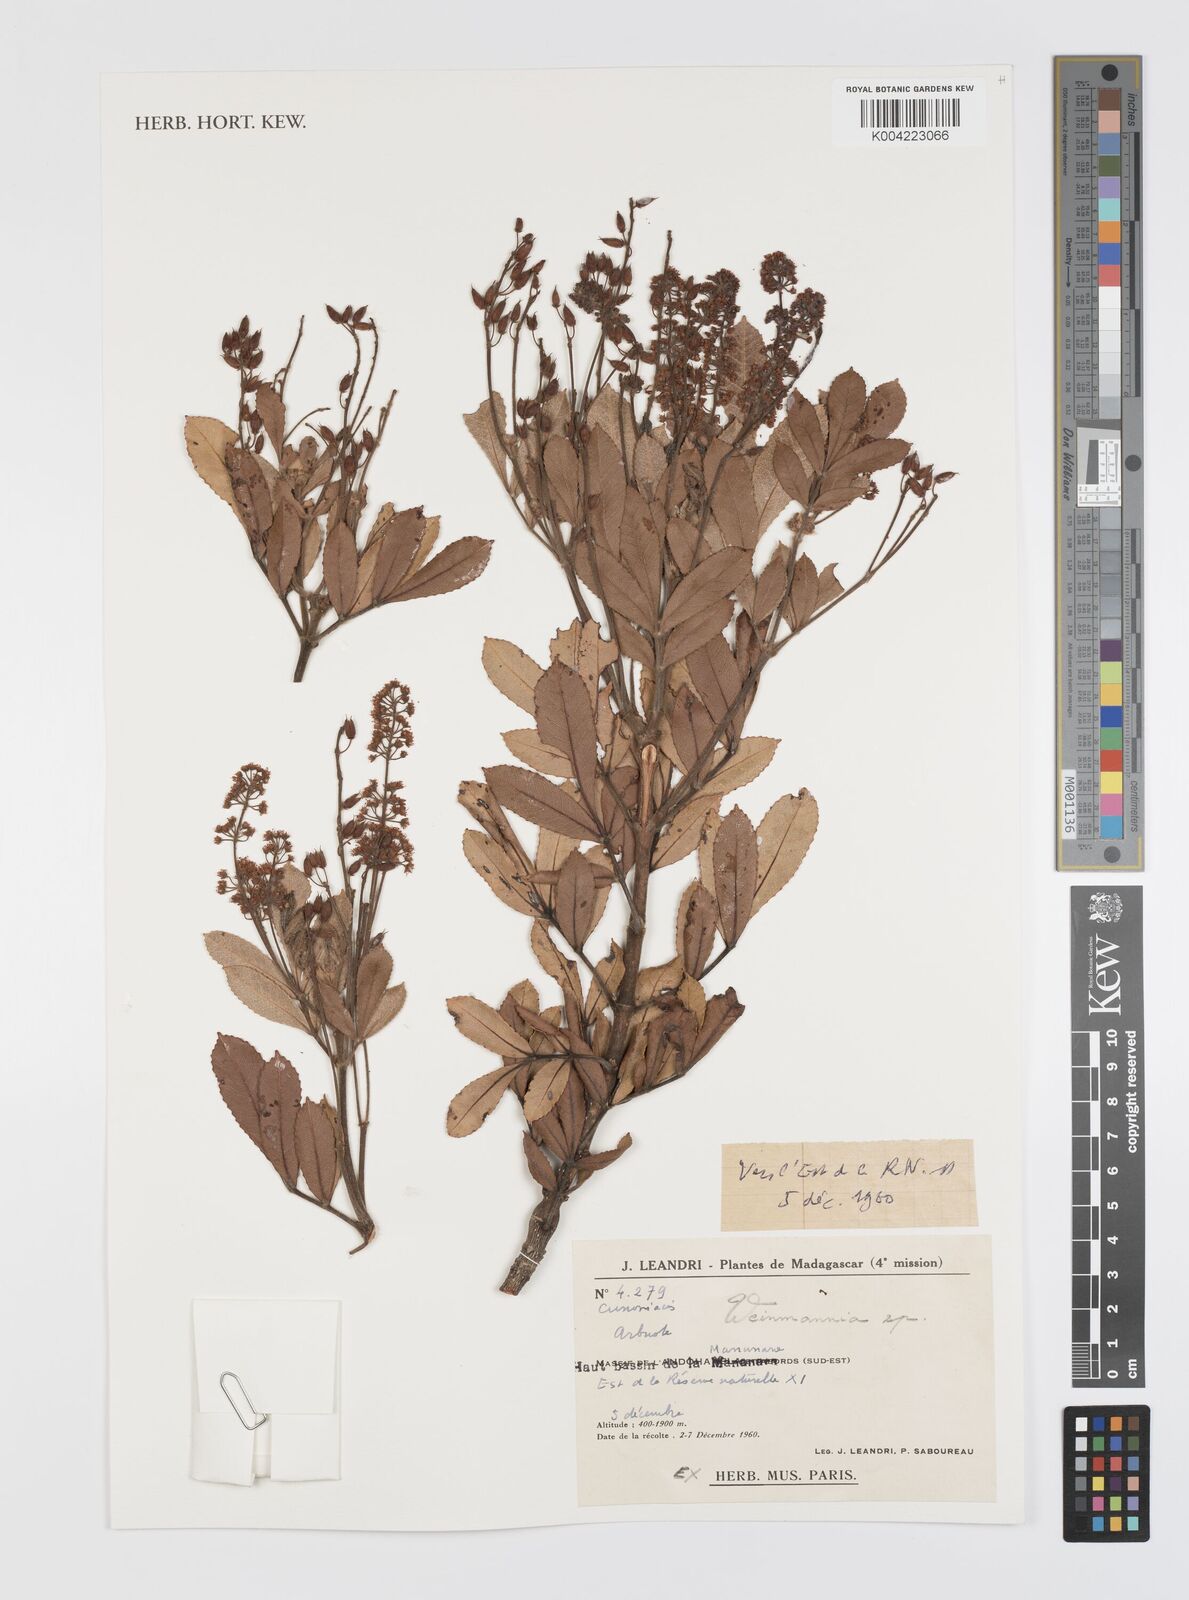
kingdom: Plantae
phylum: Tracheophyta
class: Magnoliopsida
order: Oxalidales
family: Cunoniaceae
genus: Weinmannia
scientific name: Weinmannia
